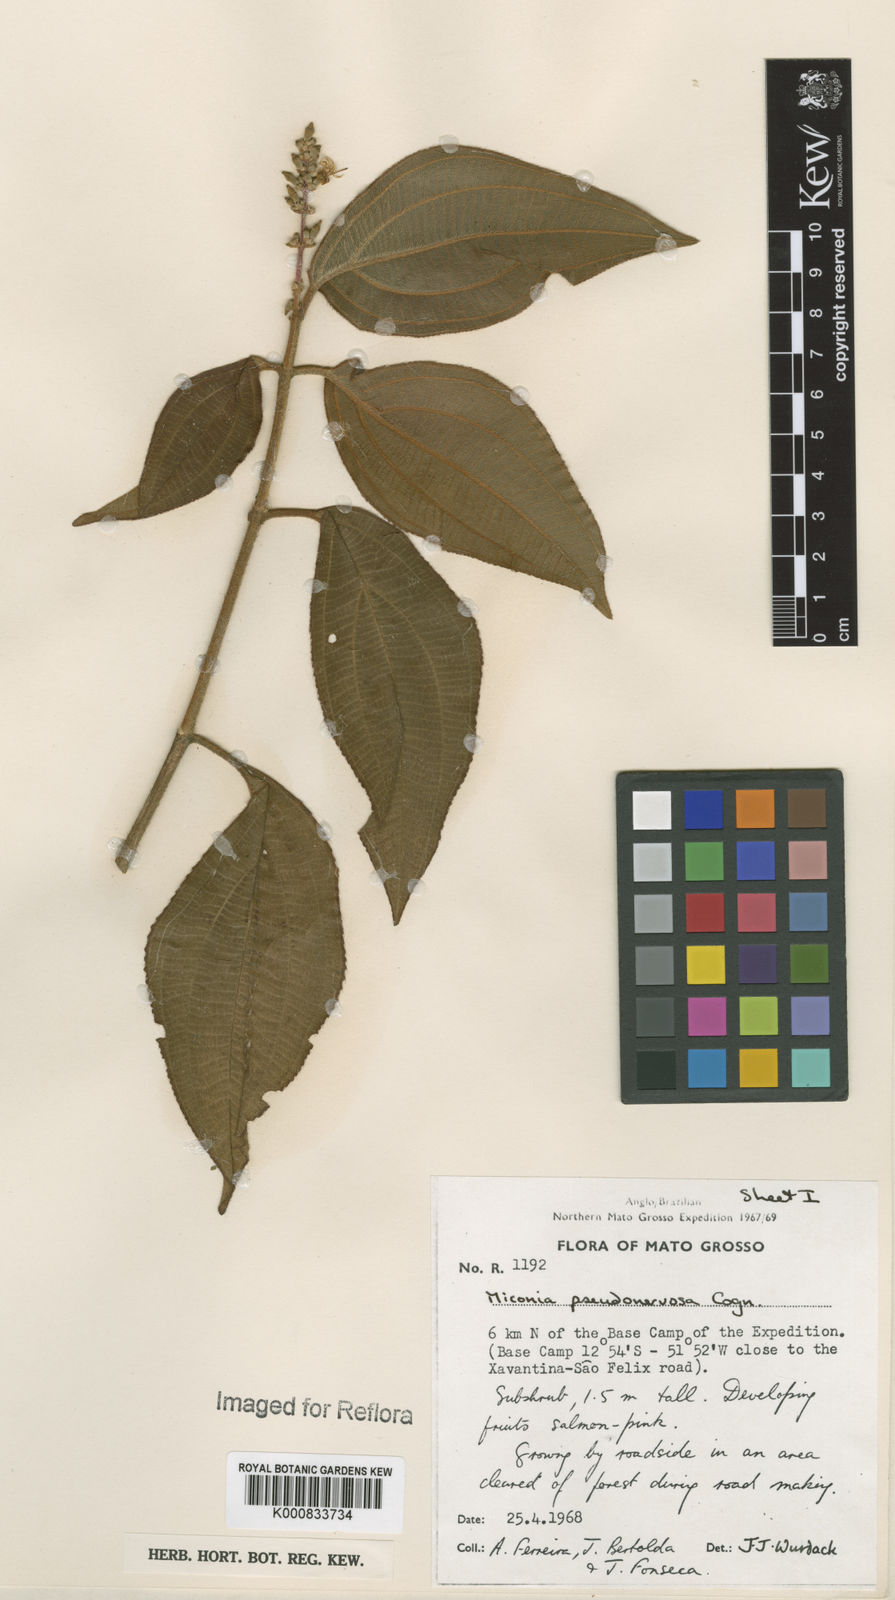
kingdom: Plantae
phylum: Tracheophyta
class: Magnoliopsida
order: Myrtales
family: Melastomataceae
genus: Miconia
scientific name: Miconia pseudonervosa
